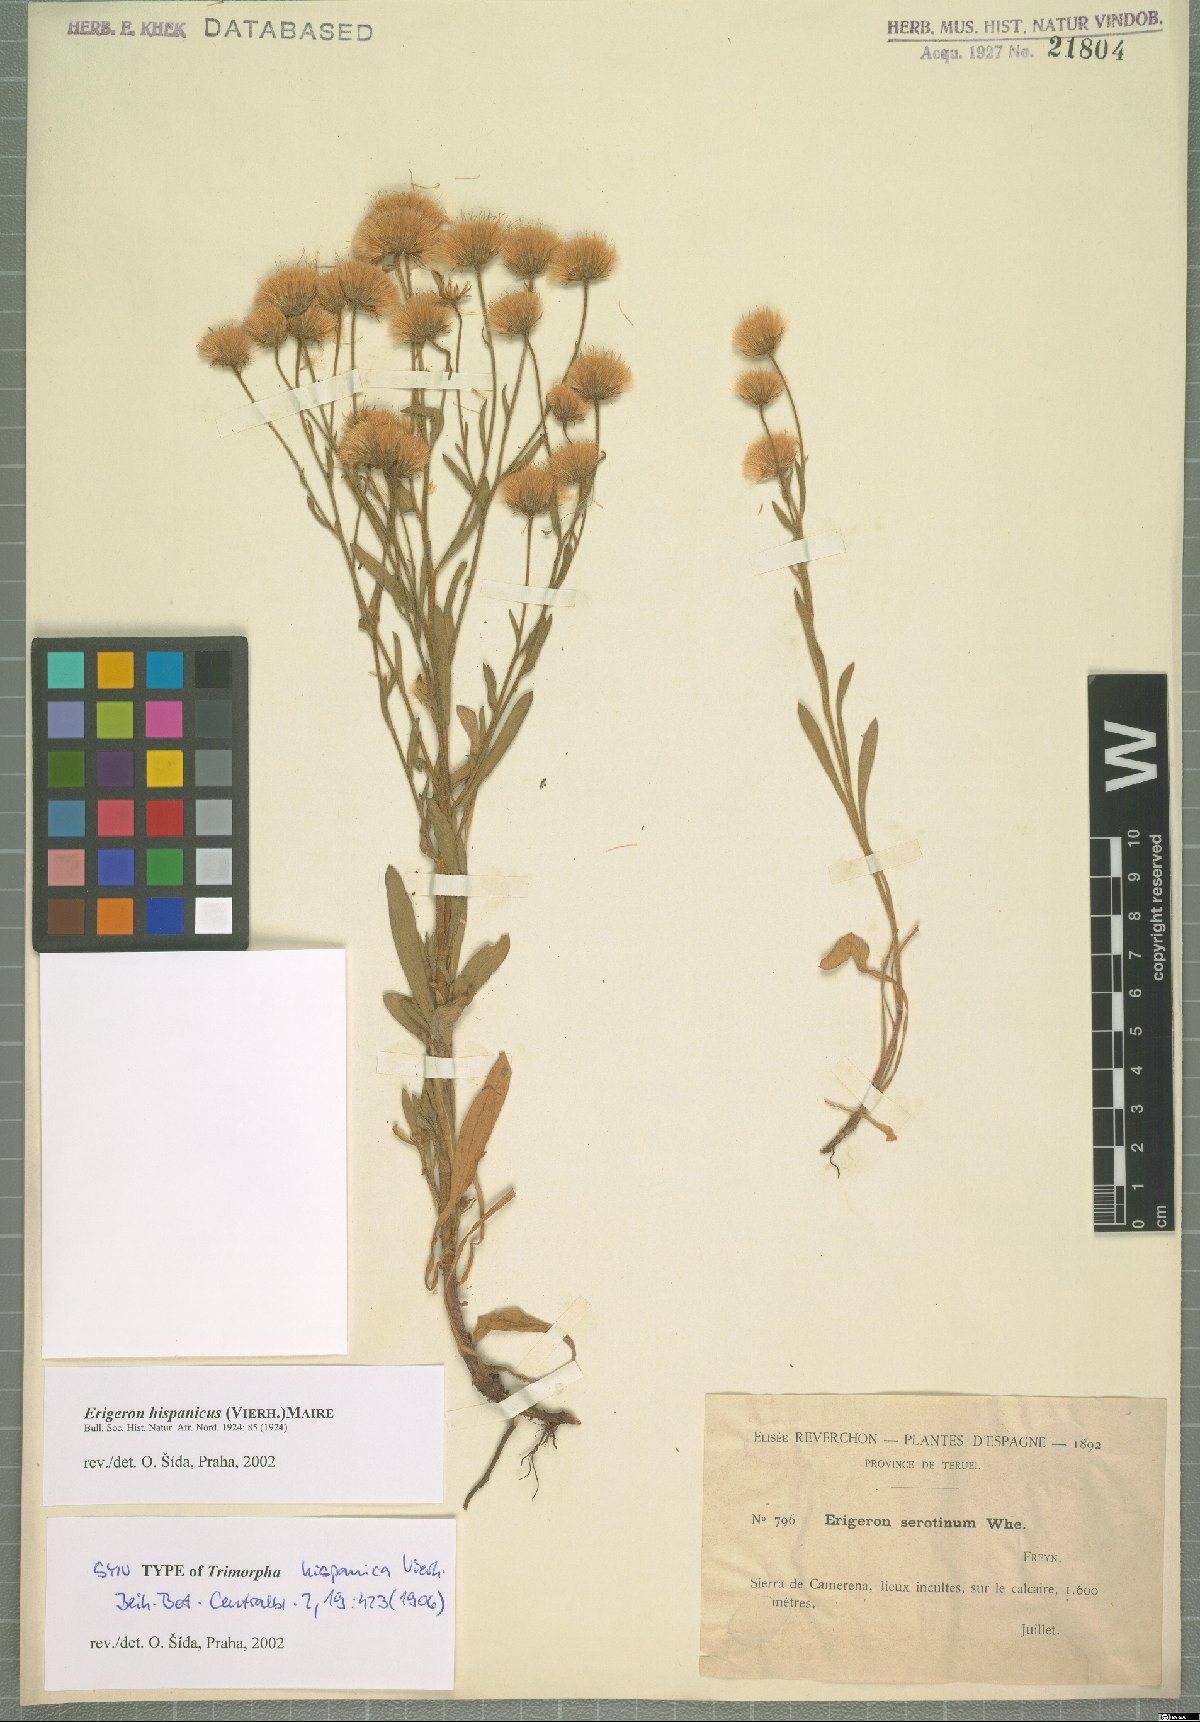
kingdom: Plantae
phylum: Tracheophyta
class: Magnoliopsida
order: Asterales
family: Asteraceae
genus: Erigeron
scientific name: Erigeron hispanicus
